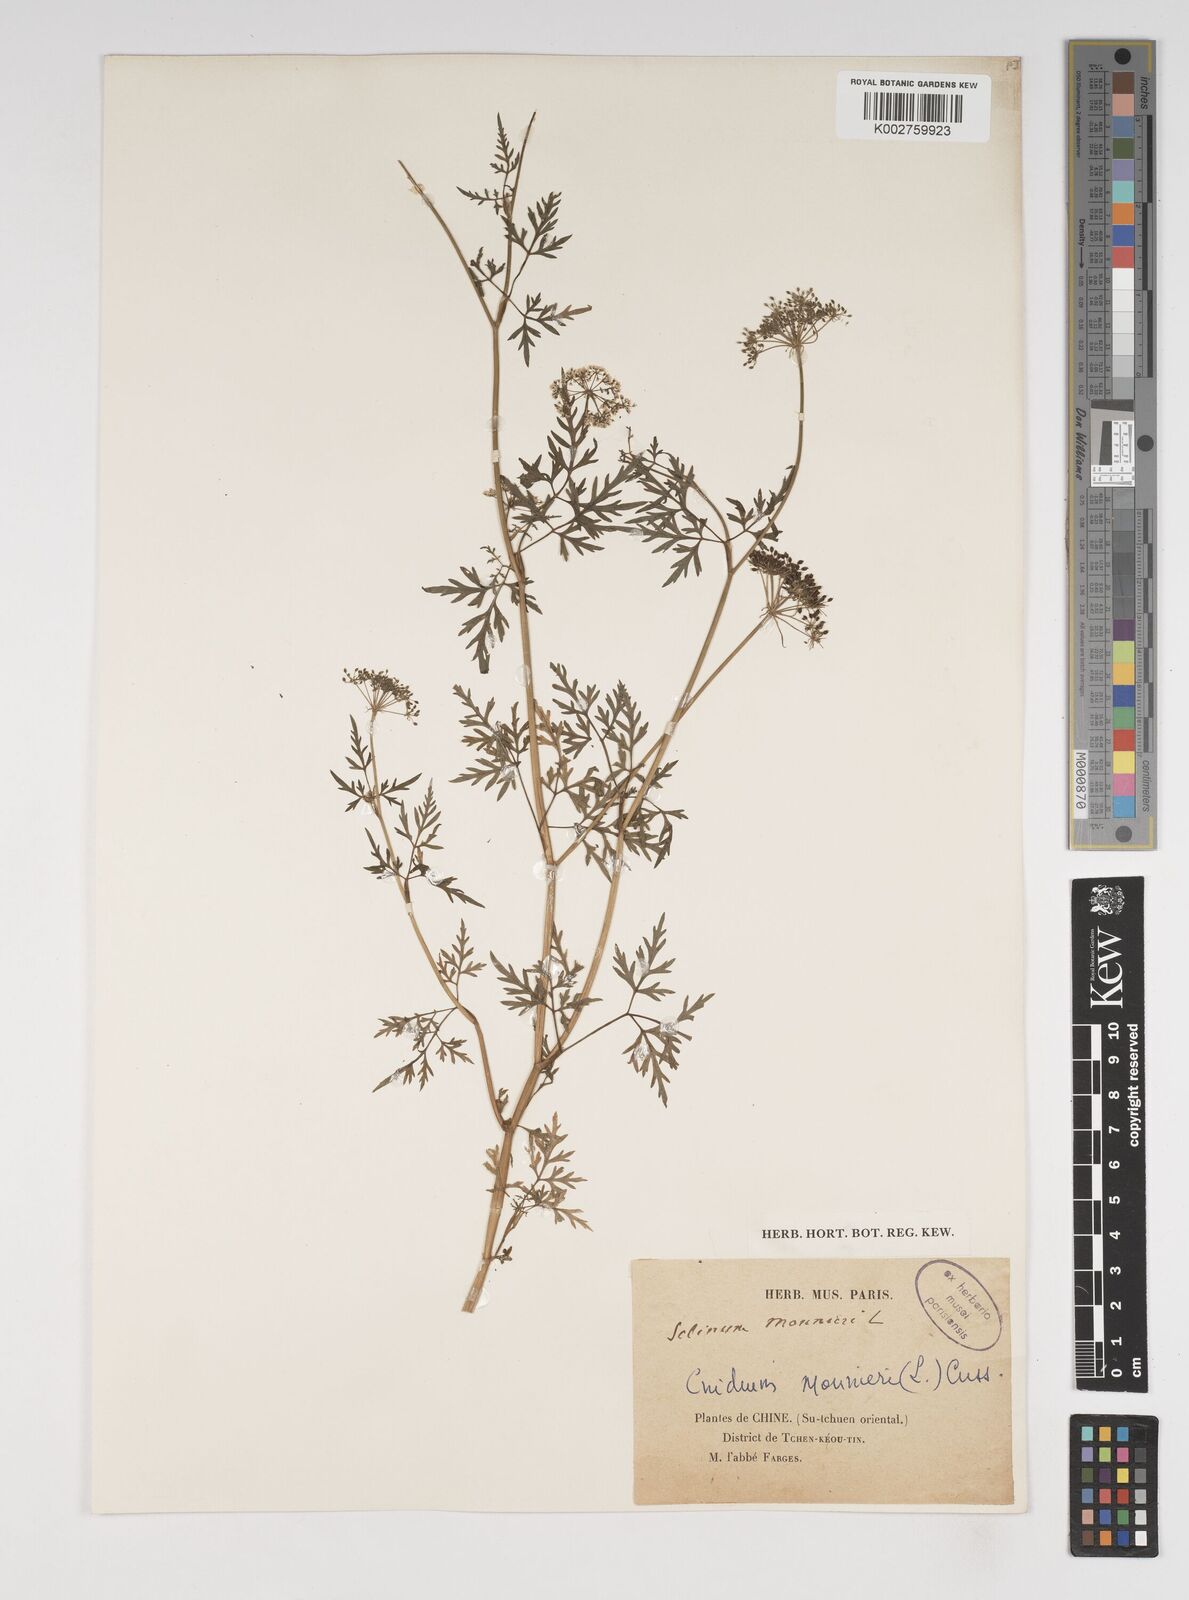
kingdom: Plantae
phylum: Tracheophyta
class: Magnoliopsida
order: Apiales
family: Apiaceae
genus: Cnidium
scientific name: Cnidium monnieri
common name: Monnier's snowparsley
